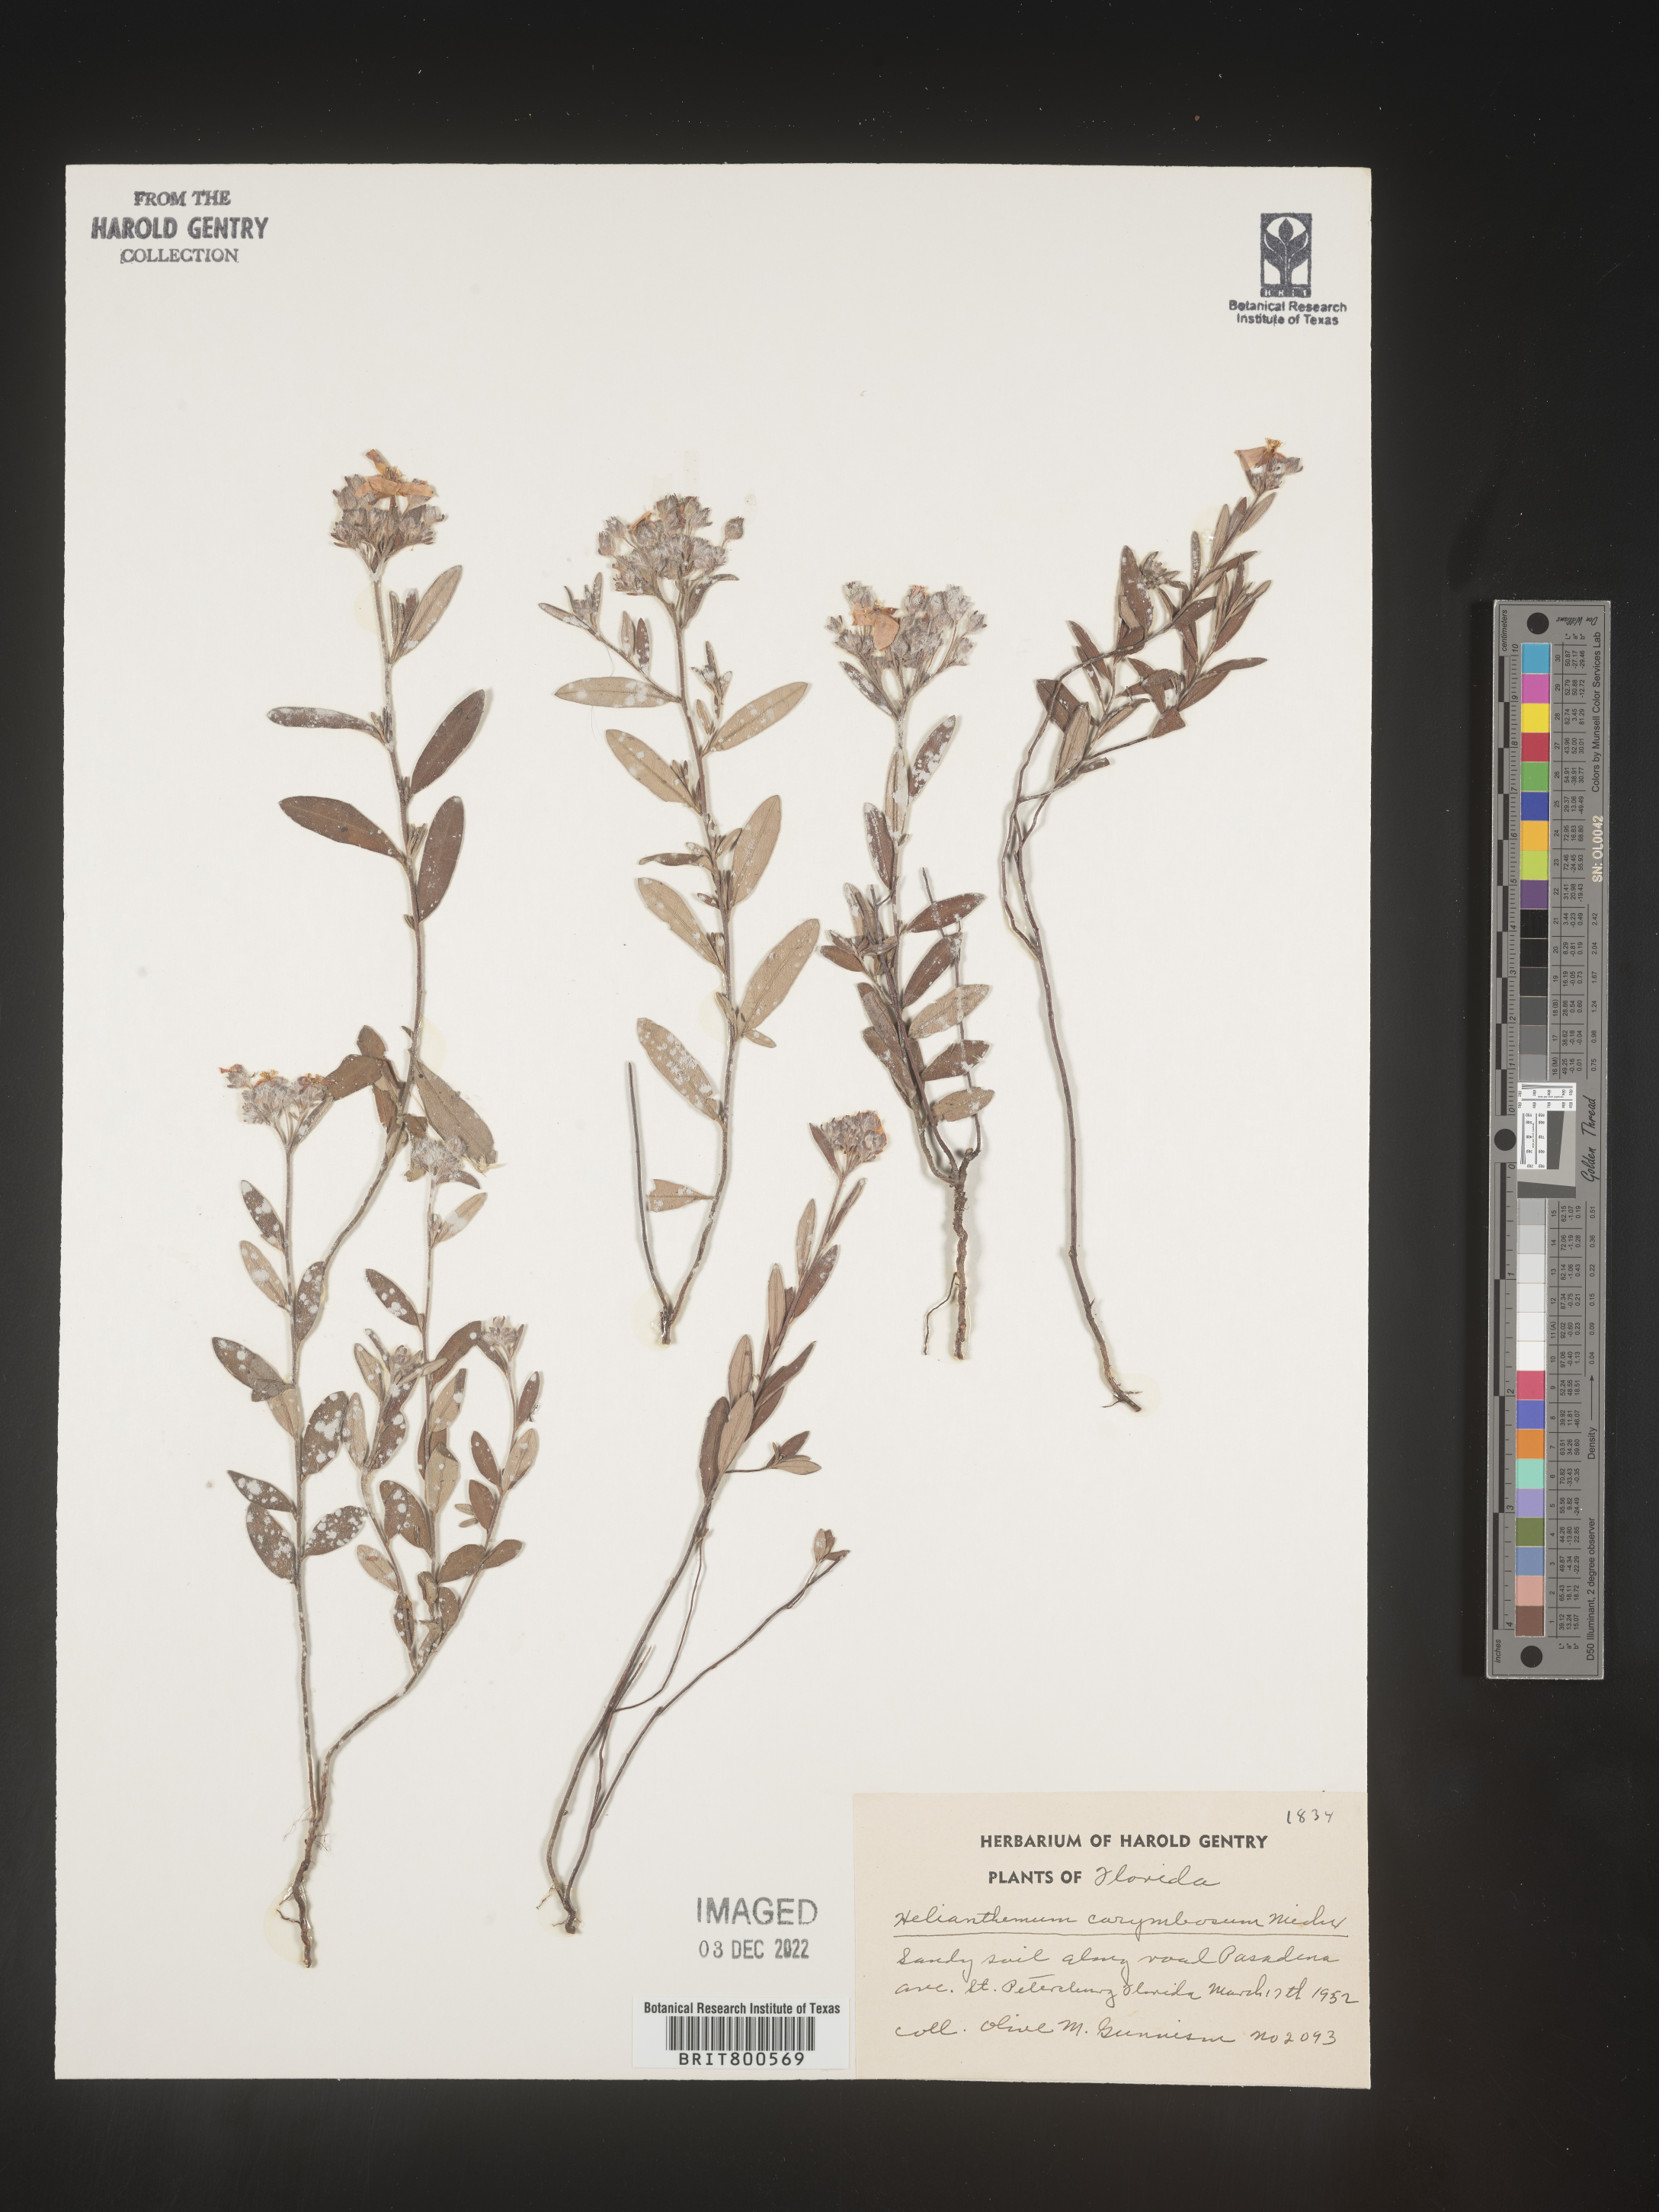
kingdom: Plantae
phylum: Tracheophyta
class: Magnoliopsida
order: Malvales
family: Cistaceae
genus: Crocanthemum
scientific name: Crocanthemum corymbosum
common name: Pinebarren sun-rose
